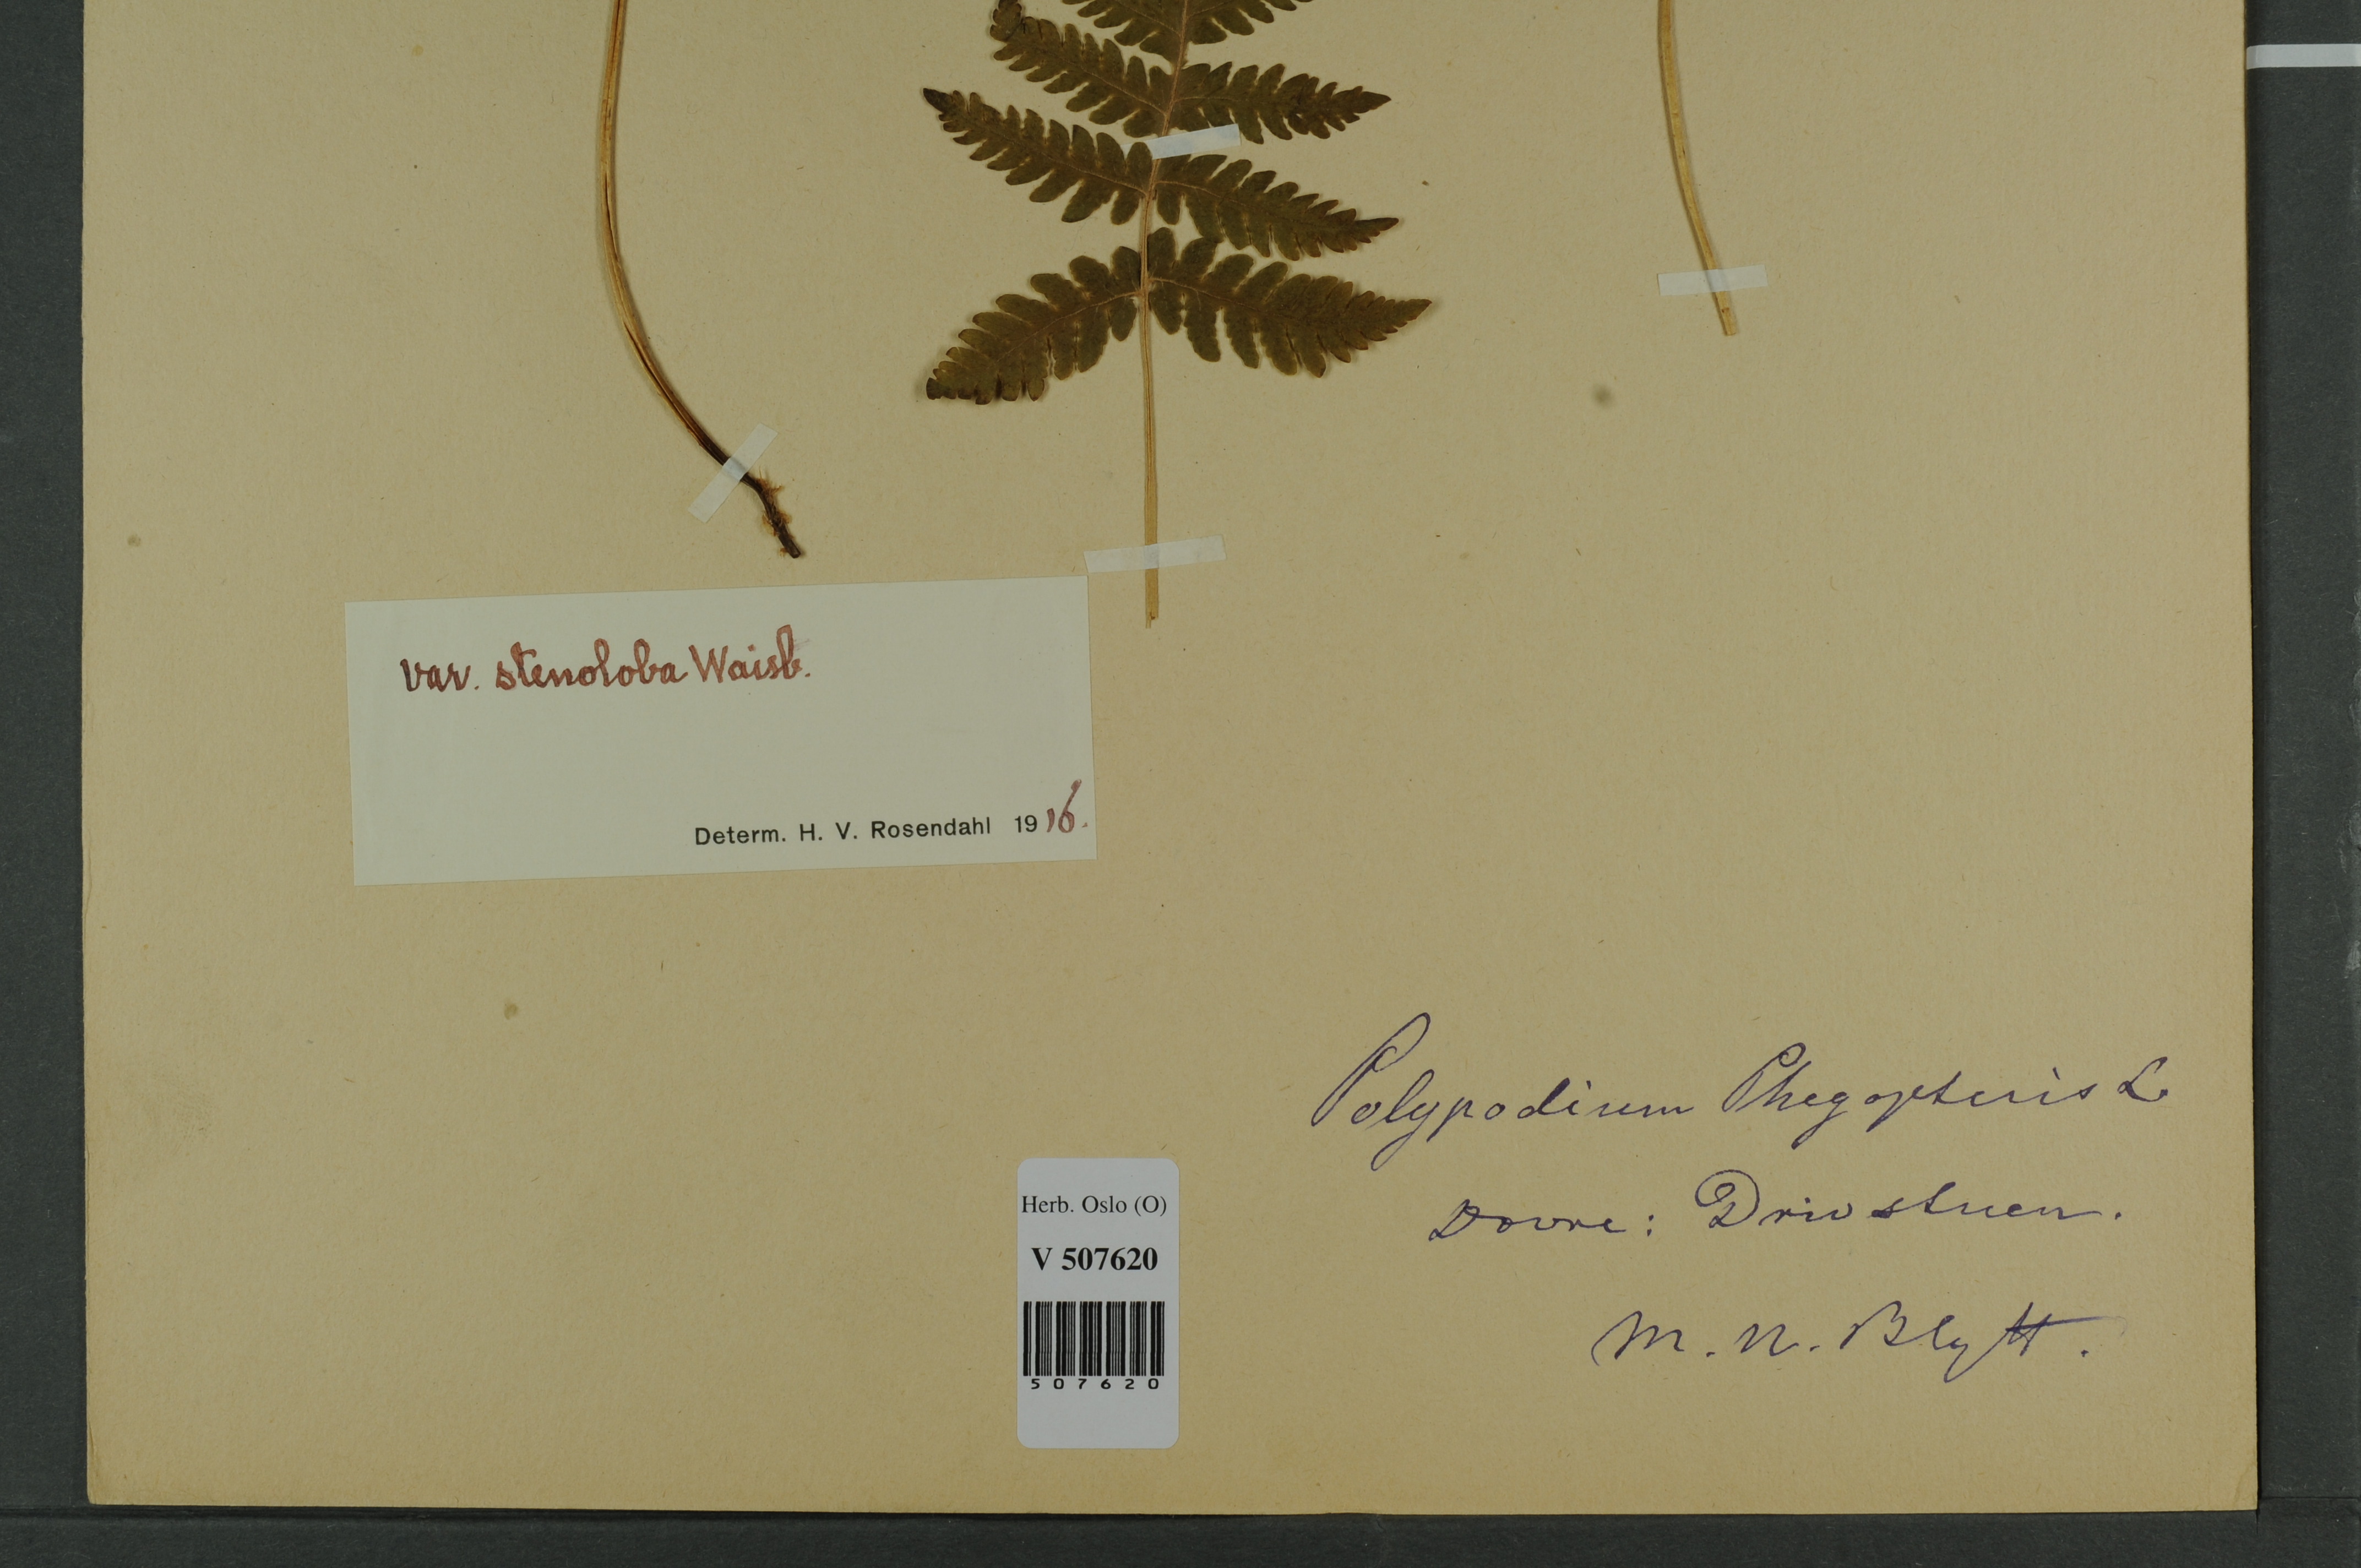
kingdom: Plantae
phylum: Tracheophyta
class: Polypodiopsida
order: Polypodiales
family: Thelypteridaceae
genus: Phegopteris
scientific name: Phegopteris connectilis
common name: Beech fern
